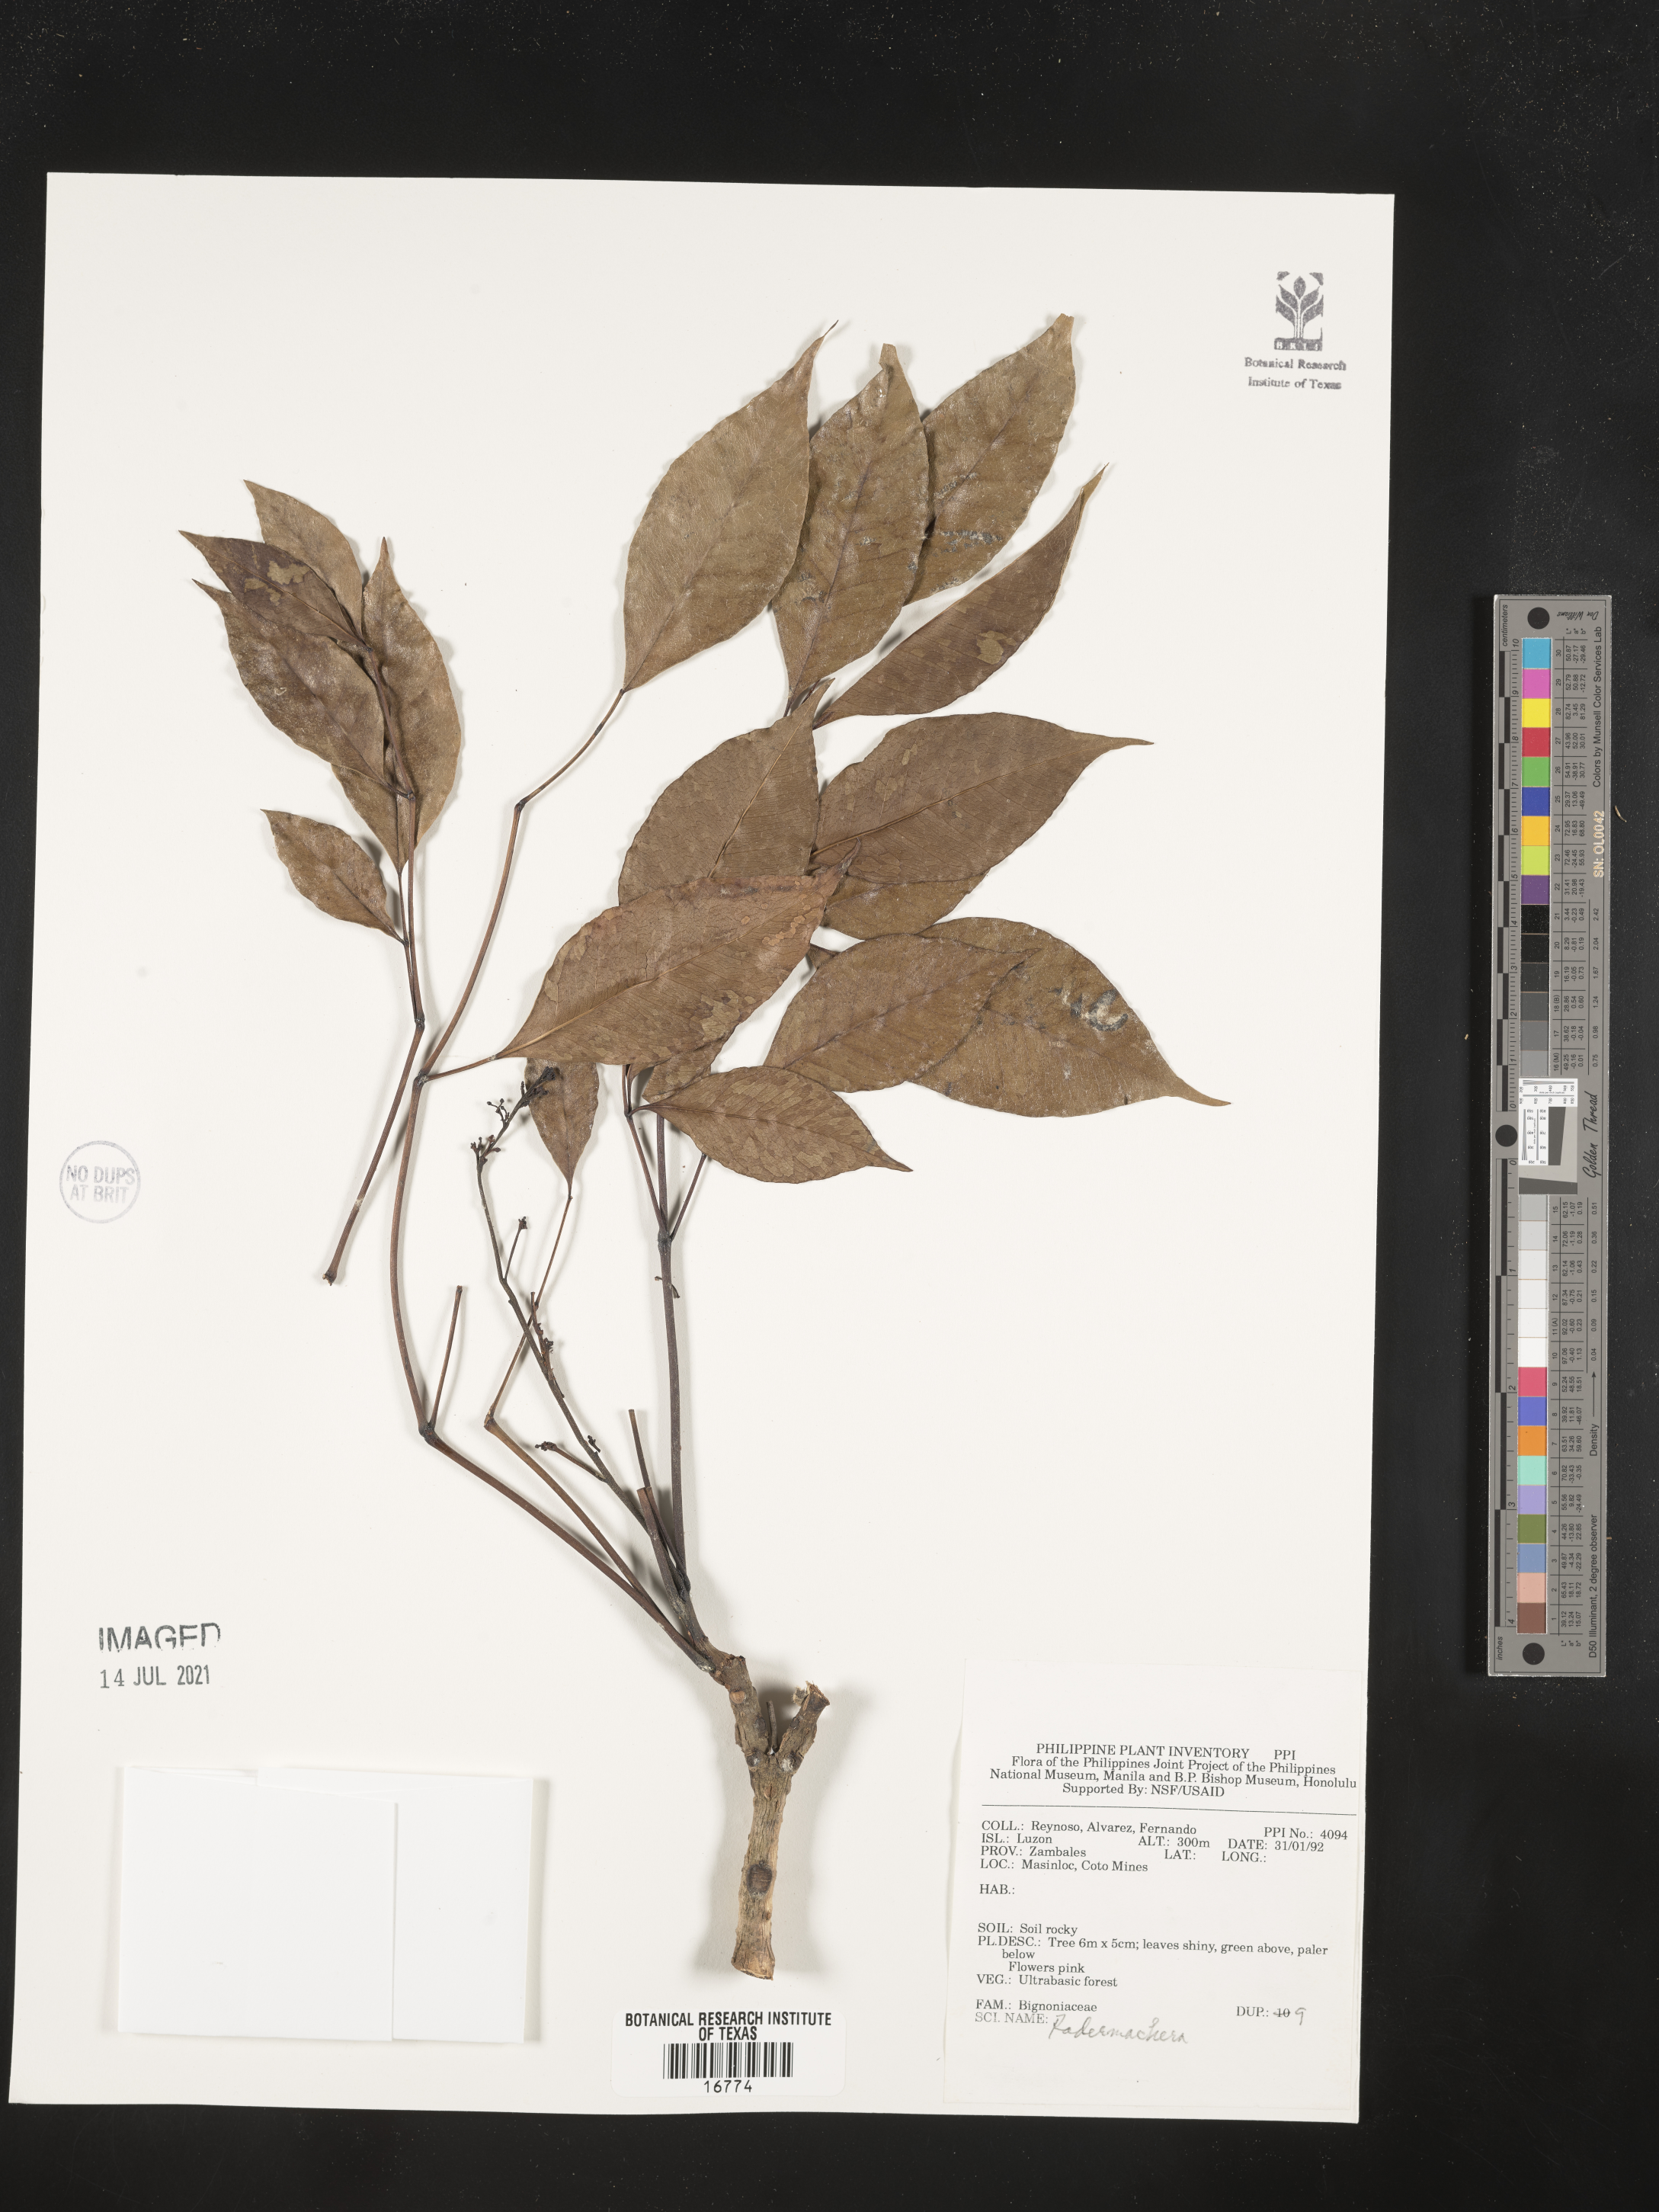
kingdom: Plantae
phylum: Tracheophyta
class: Magnoliopsida
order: Lamiales
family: Bignoniaceae
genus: Radermachera
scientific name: Radermachera
